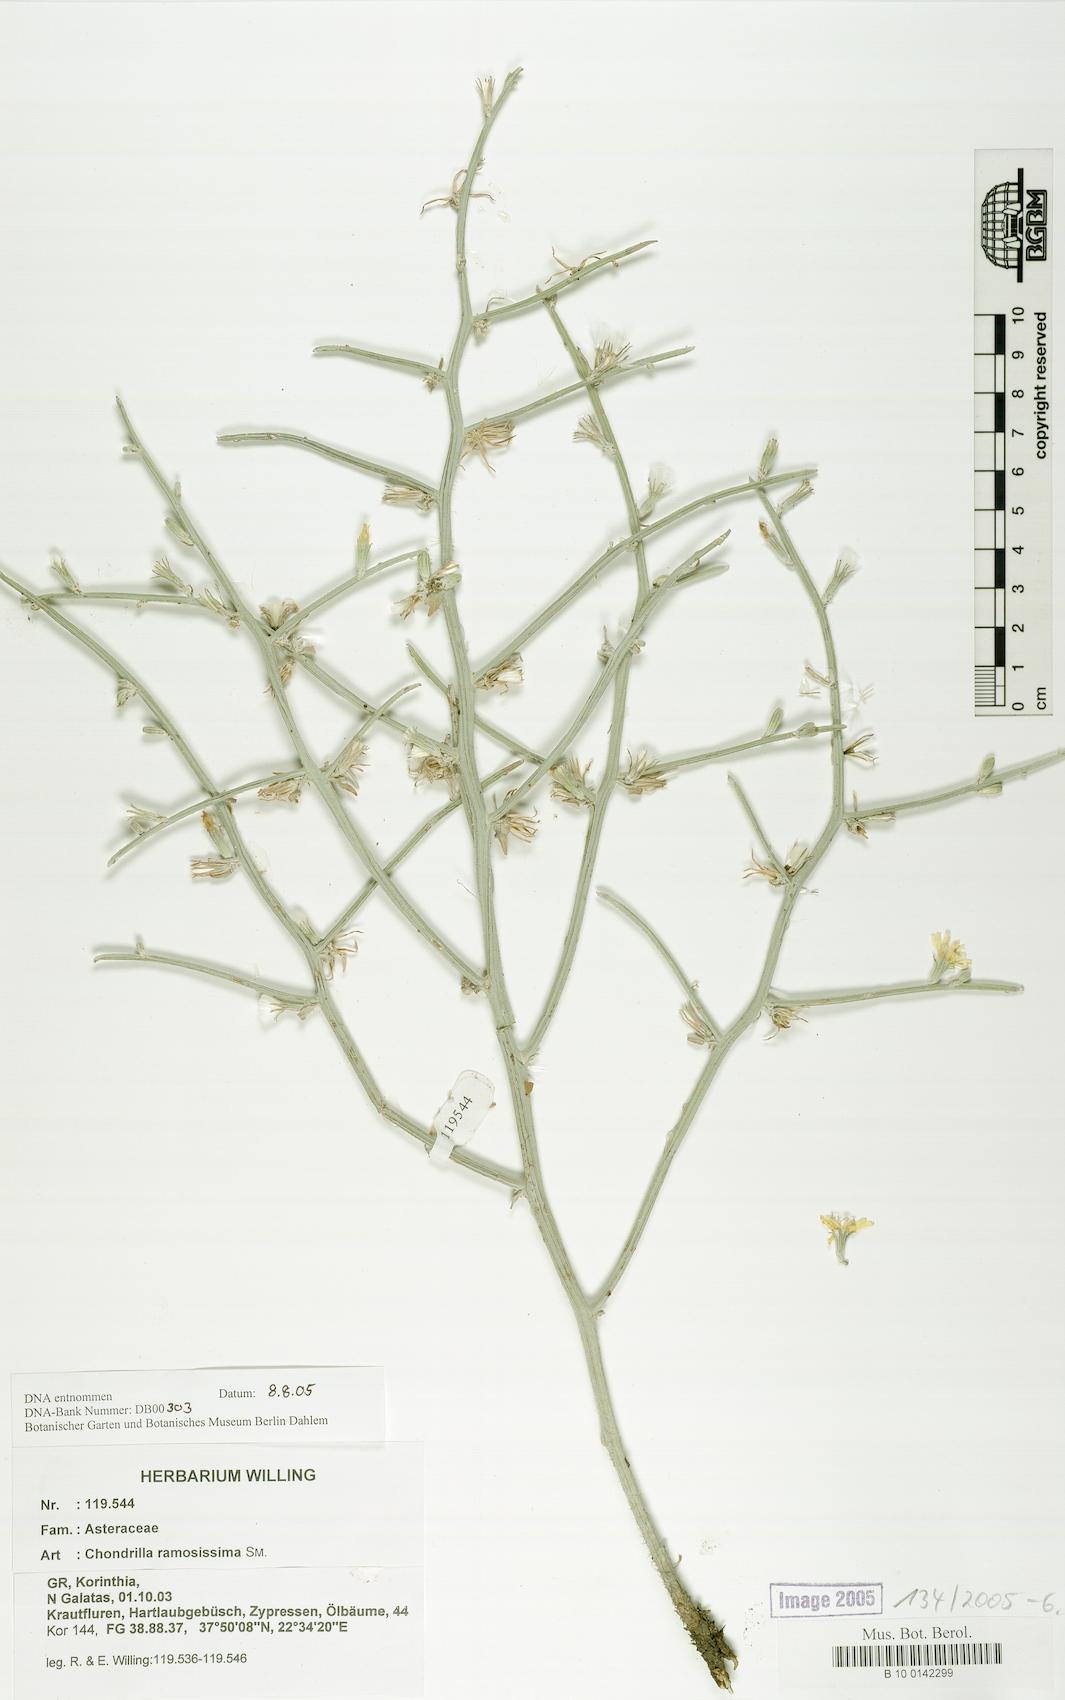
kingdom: Plantae
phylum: Tracheophyta
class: Magnoliopsida
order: Asterales
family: Asteraceae
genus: Chondrilla
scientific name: Chondrilla ramosissima
